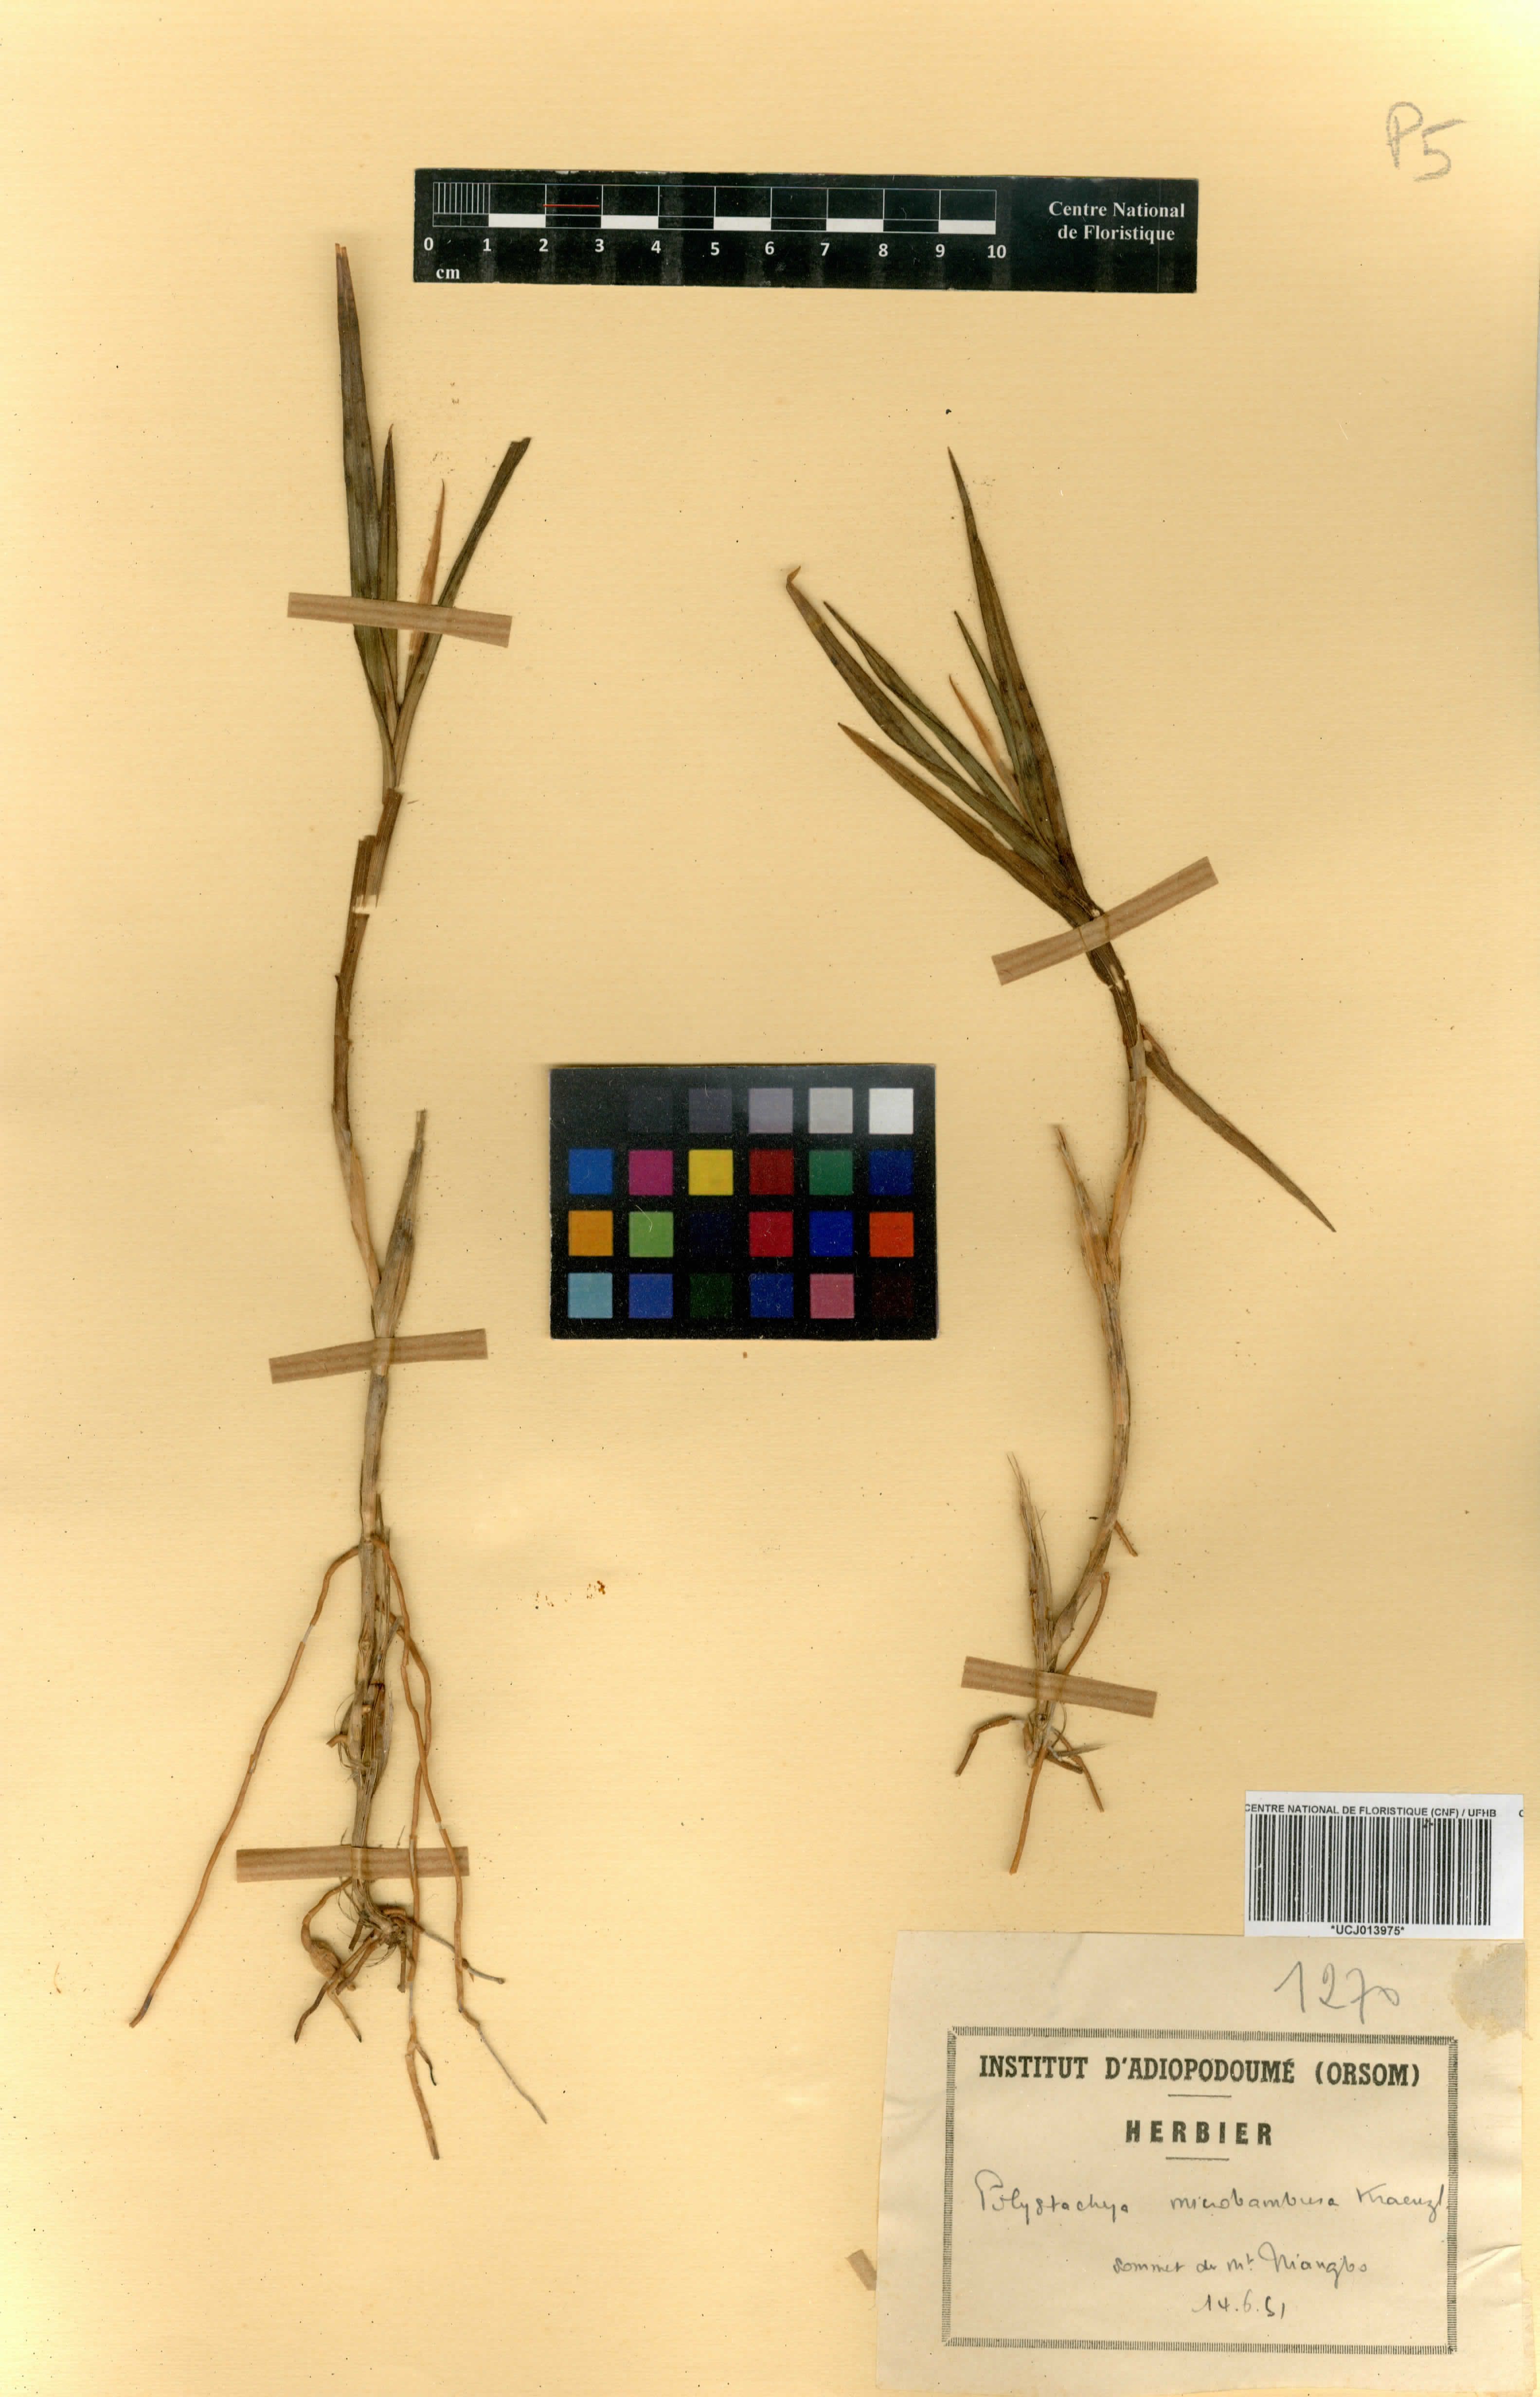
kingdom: Plantae
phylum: Tracheophyta
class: Liliopsida
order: Asparagales
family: Orchidaceae
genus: Polystachya
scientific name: Polystachya microbambusa
